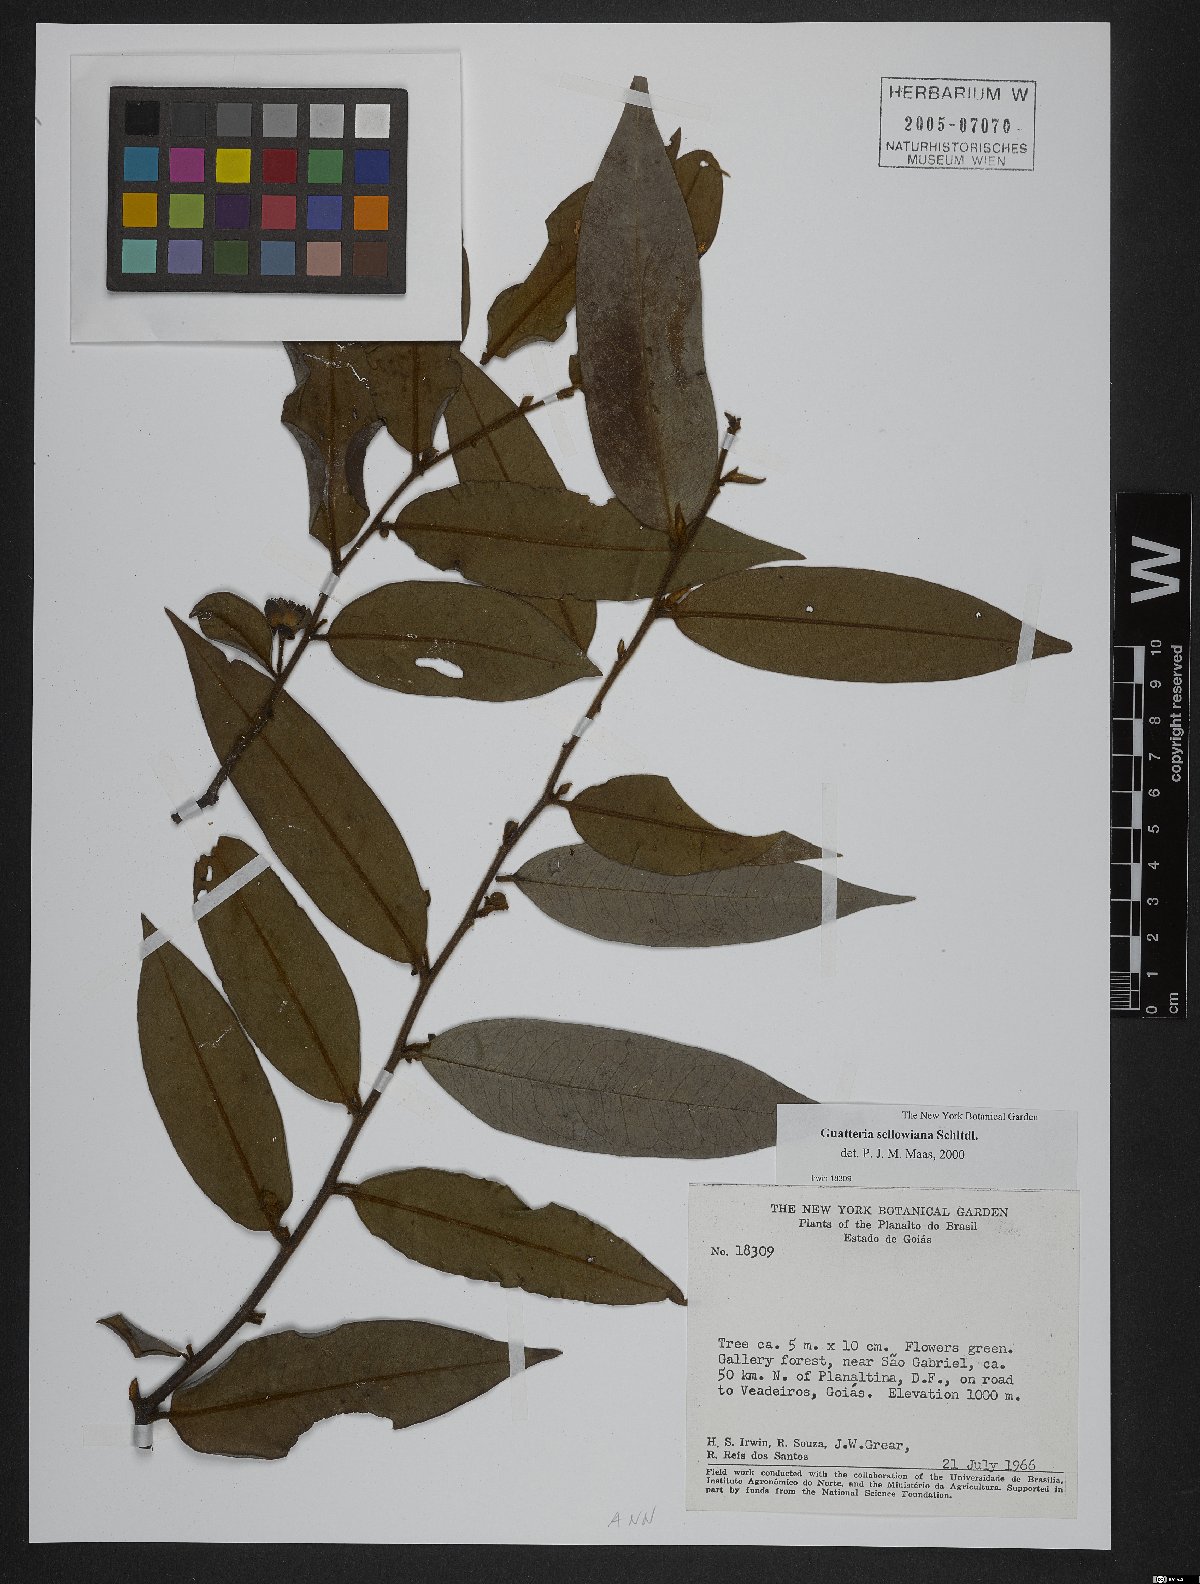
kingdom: Plantae
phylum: Tracheophyta
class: Magnoliopsida
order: Magnoliales
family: Annonaceae
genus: Guatteria
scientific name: Guatteria sellowiana
